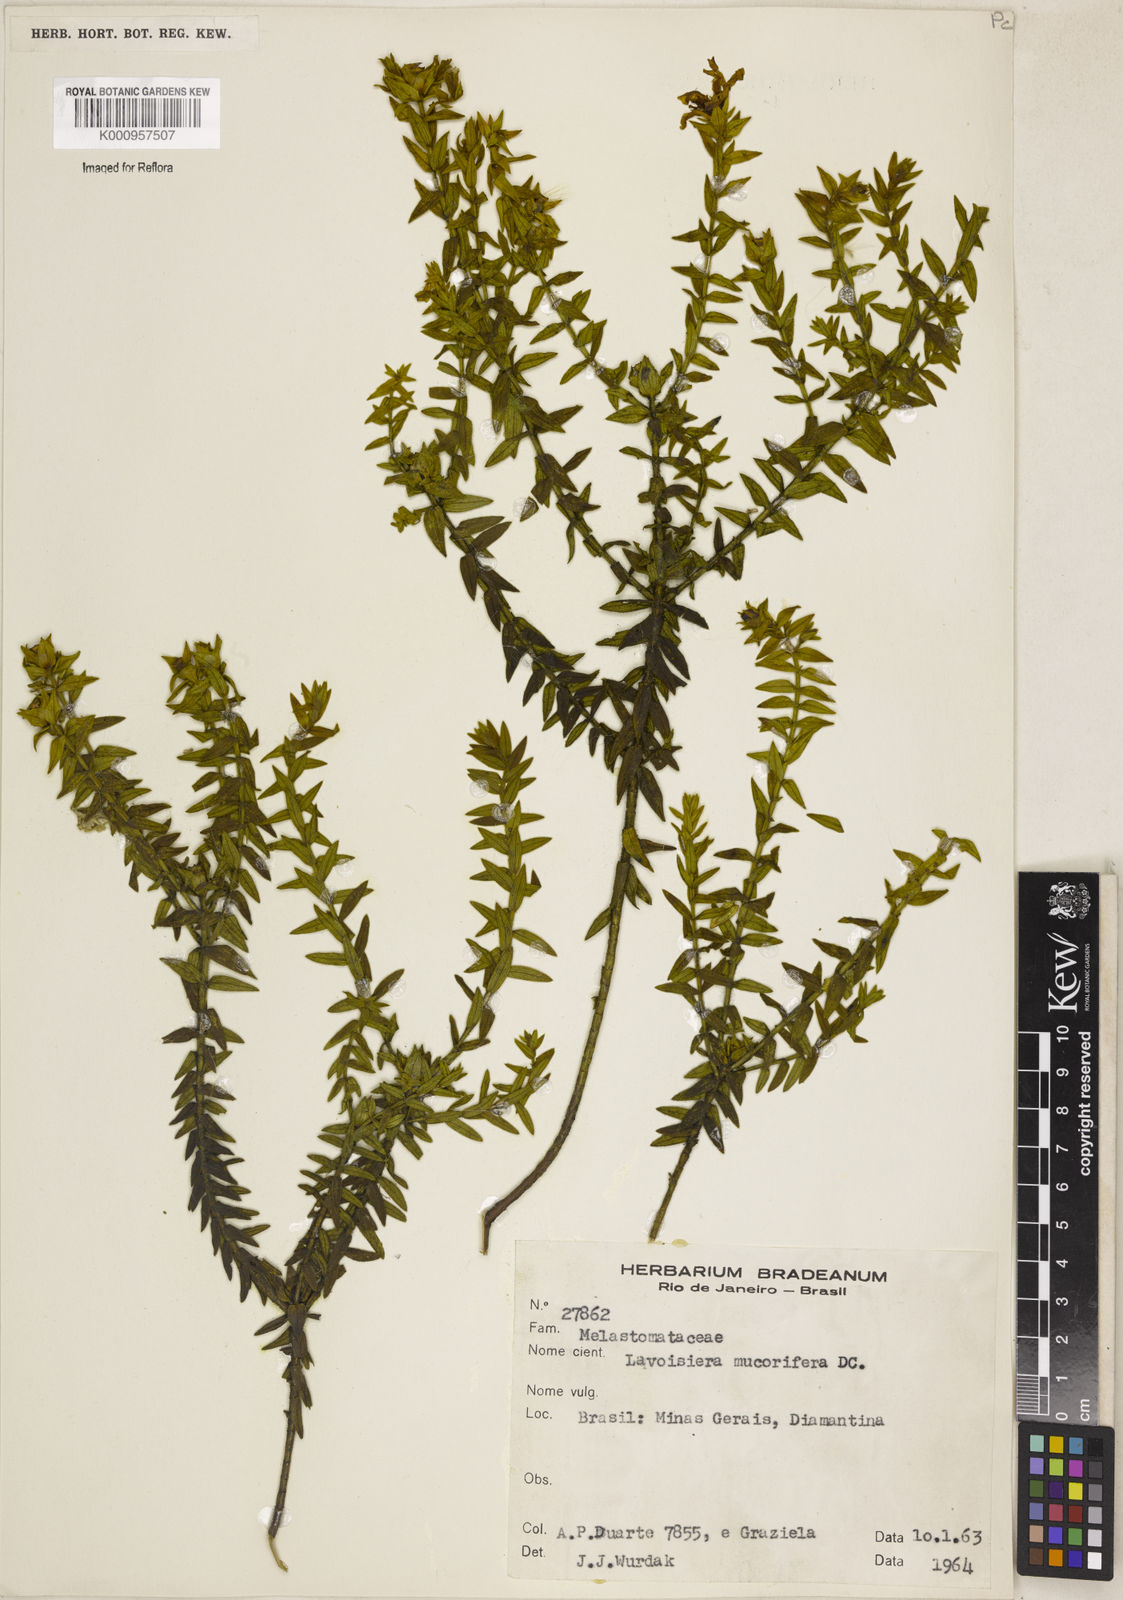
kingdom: Plantae
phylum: Tracheophyta
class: Magnoliopsida
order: Myrtales
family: Melastomataceae
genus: Microlicia
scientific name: Microlicia mucorifera
